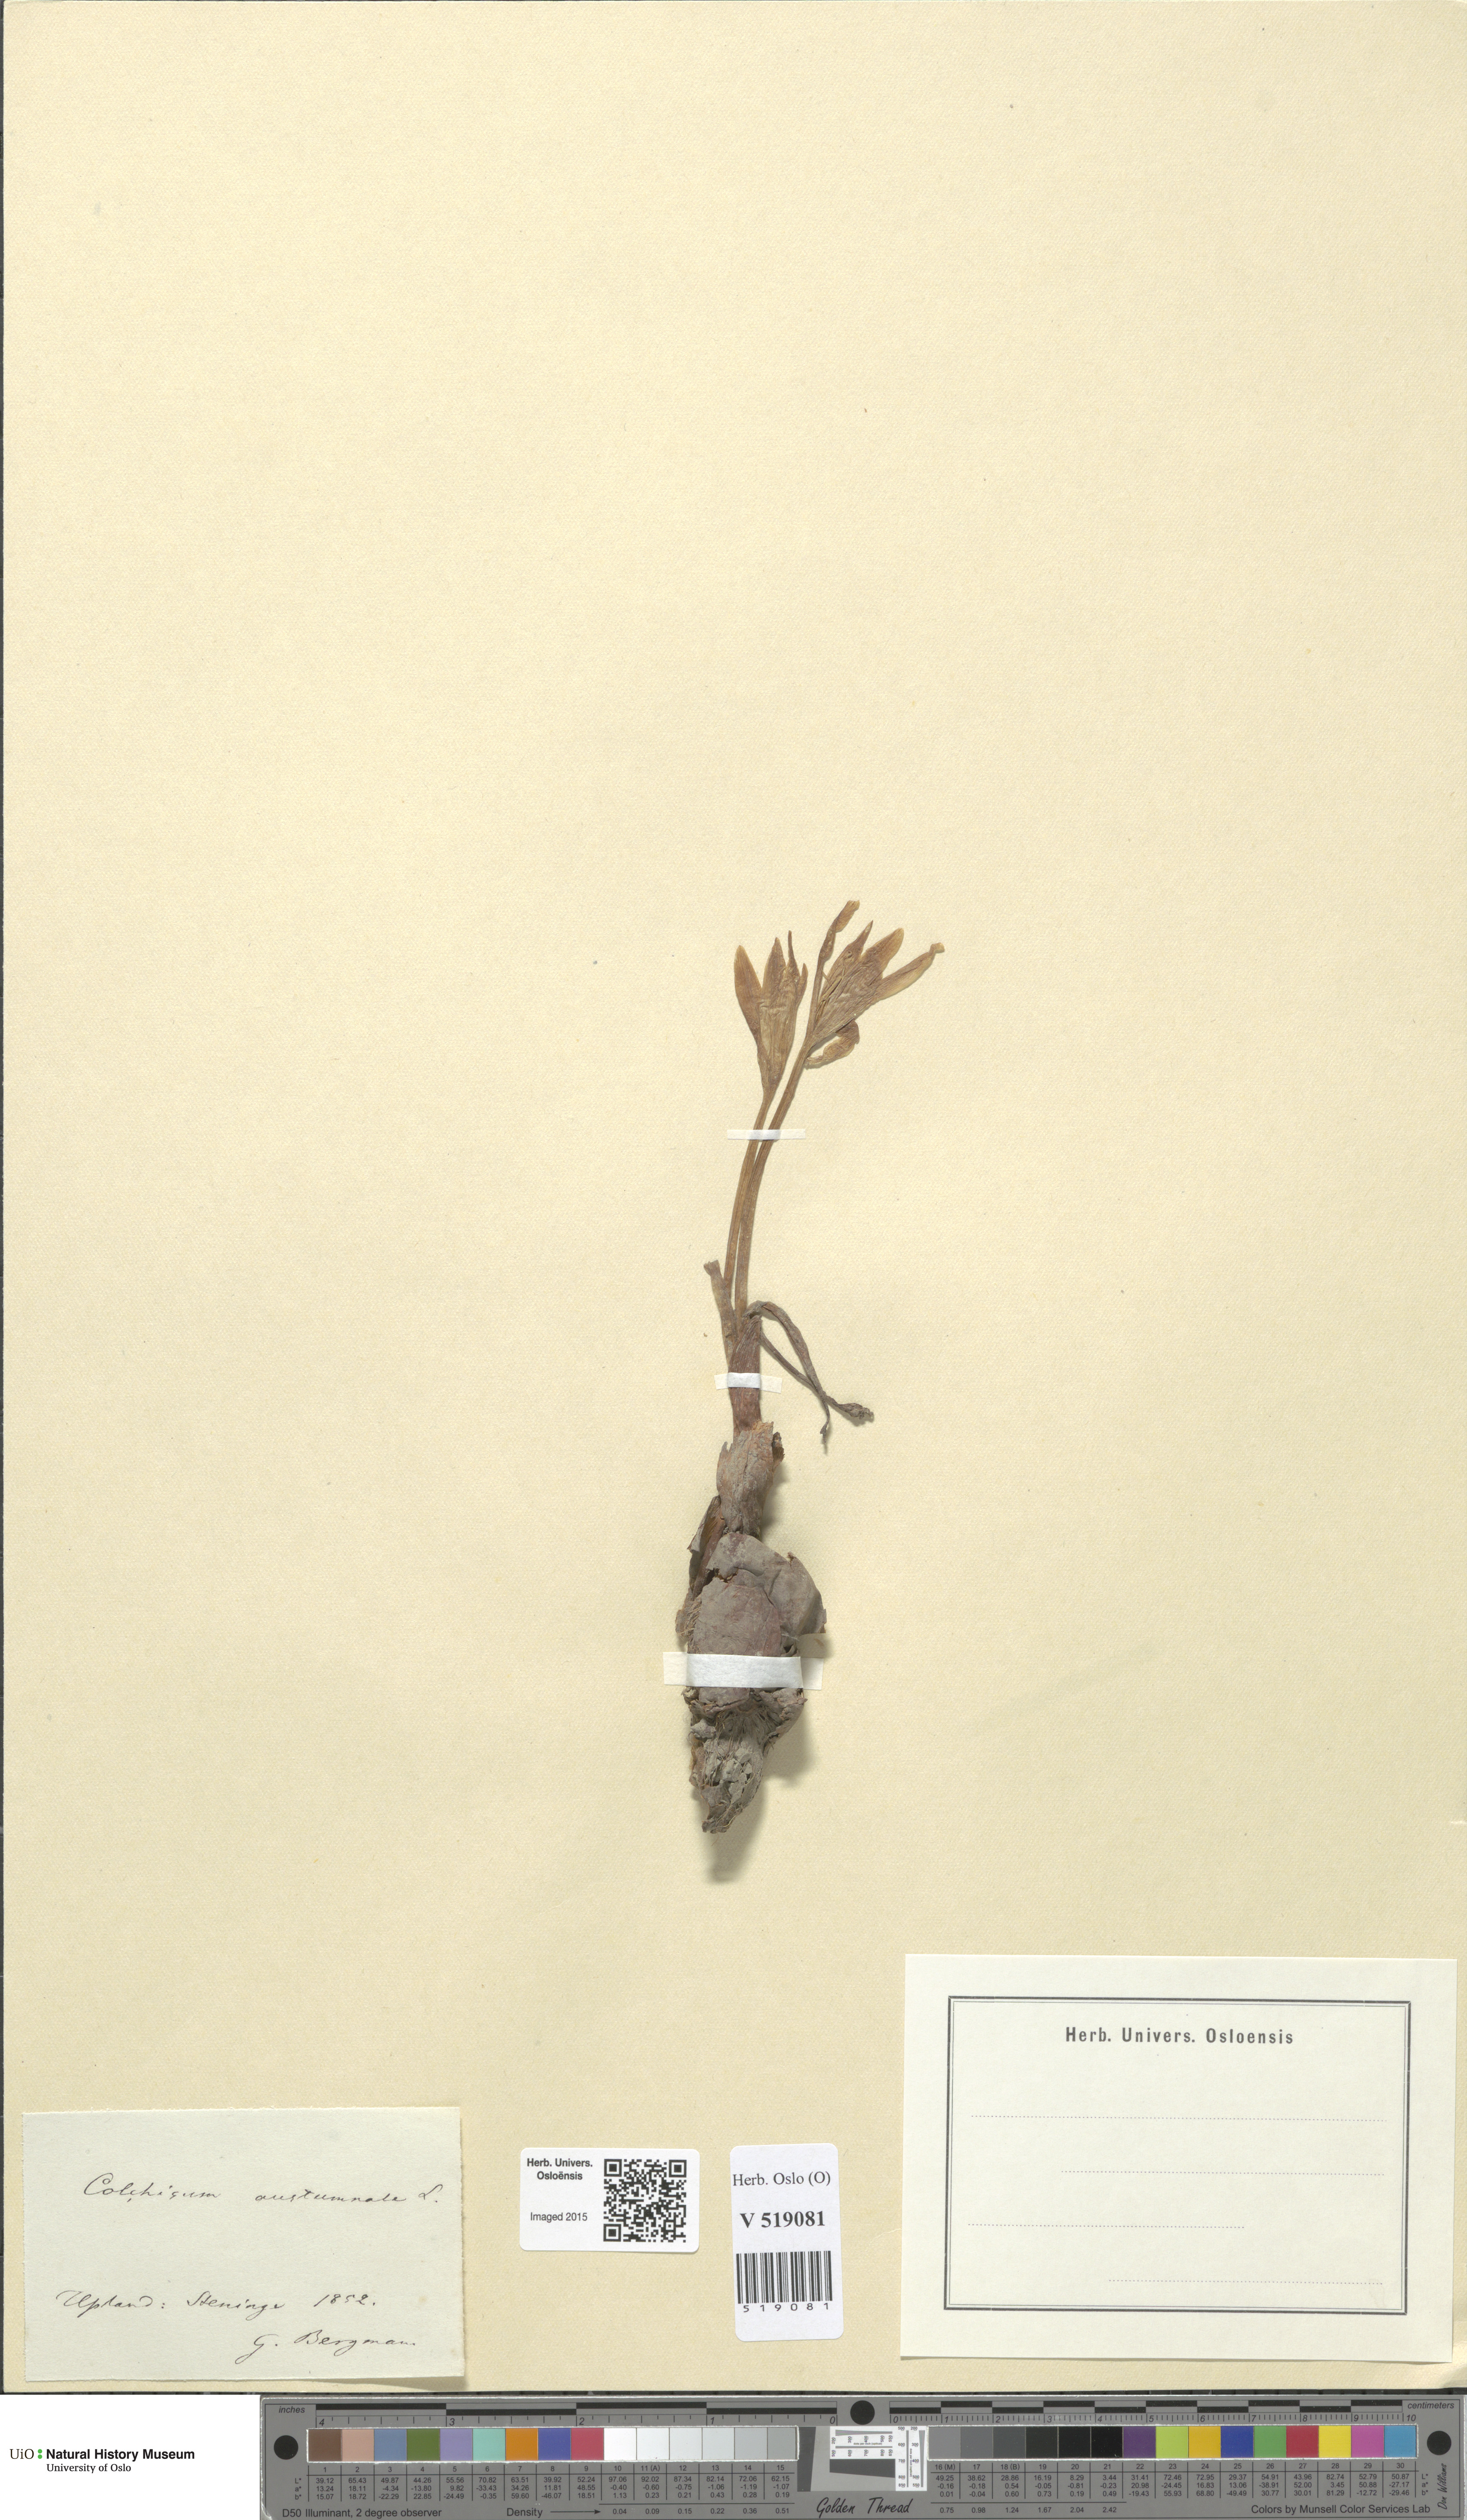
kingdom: Plantae
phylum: Tracheophyta
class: Liliopsida
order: Liliales
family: Colchicaceae
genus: Colchicum
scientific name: Colchicum autumnale
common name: Autumn crocus
